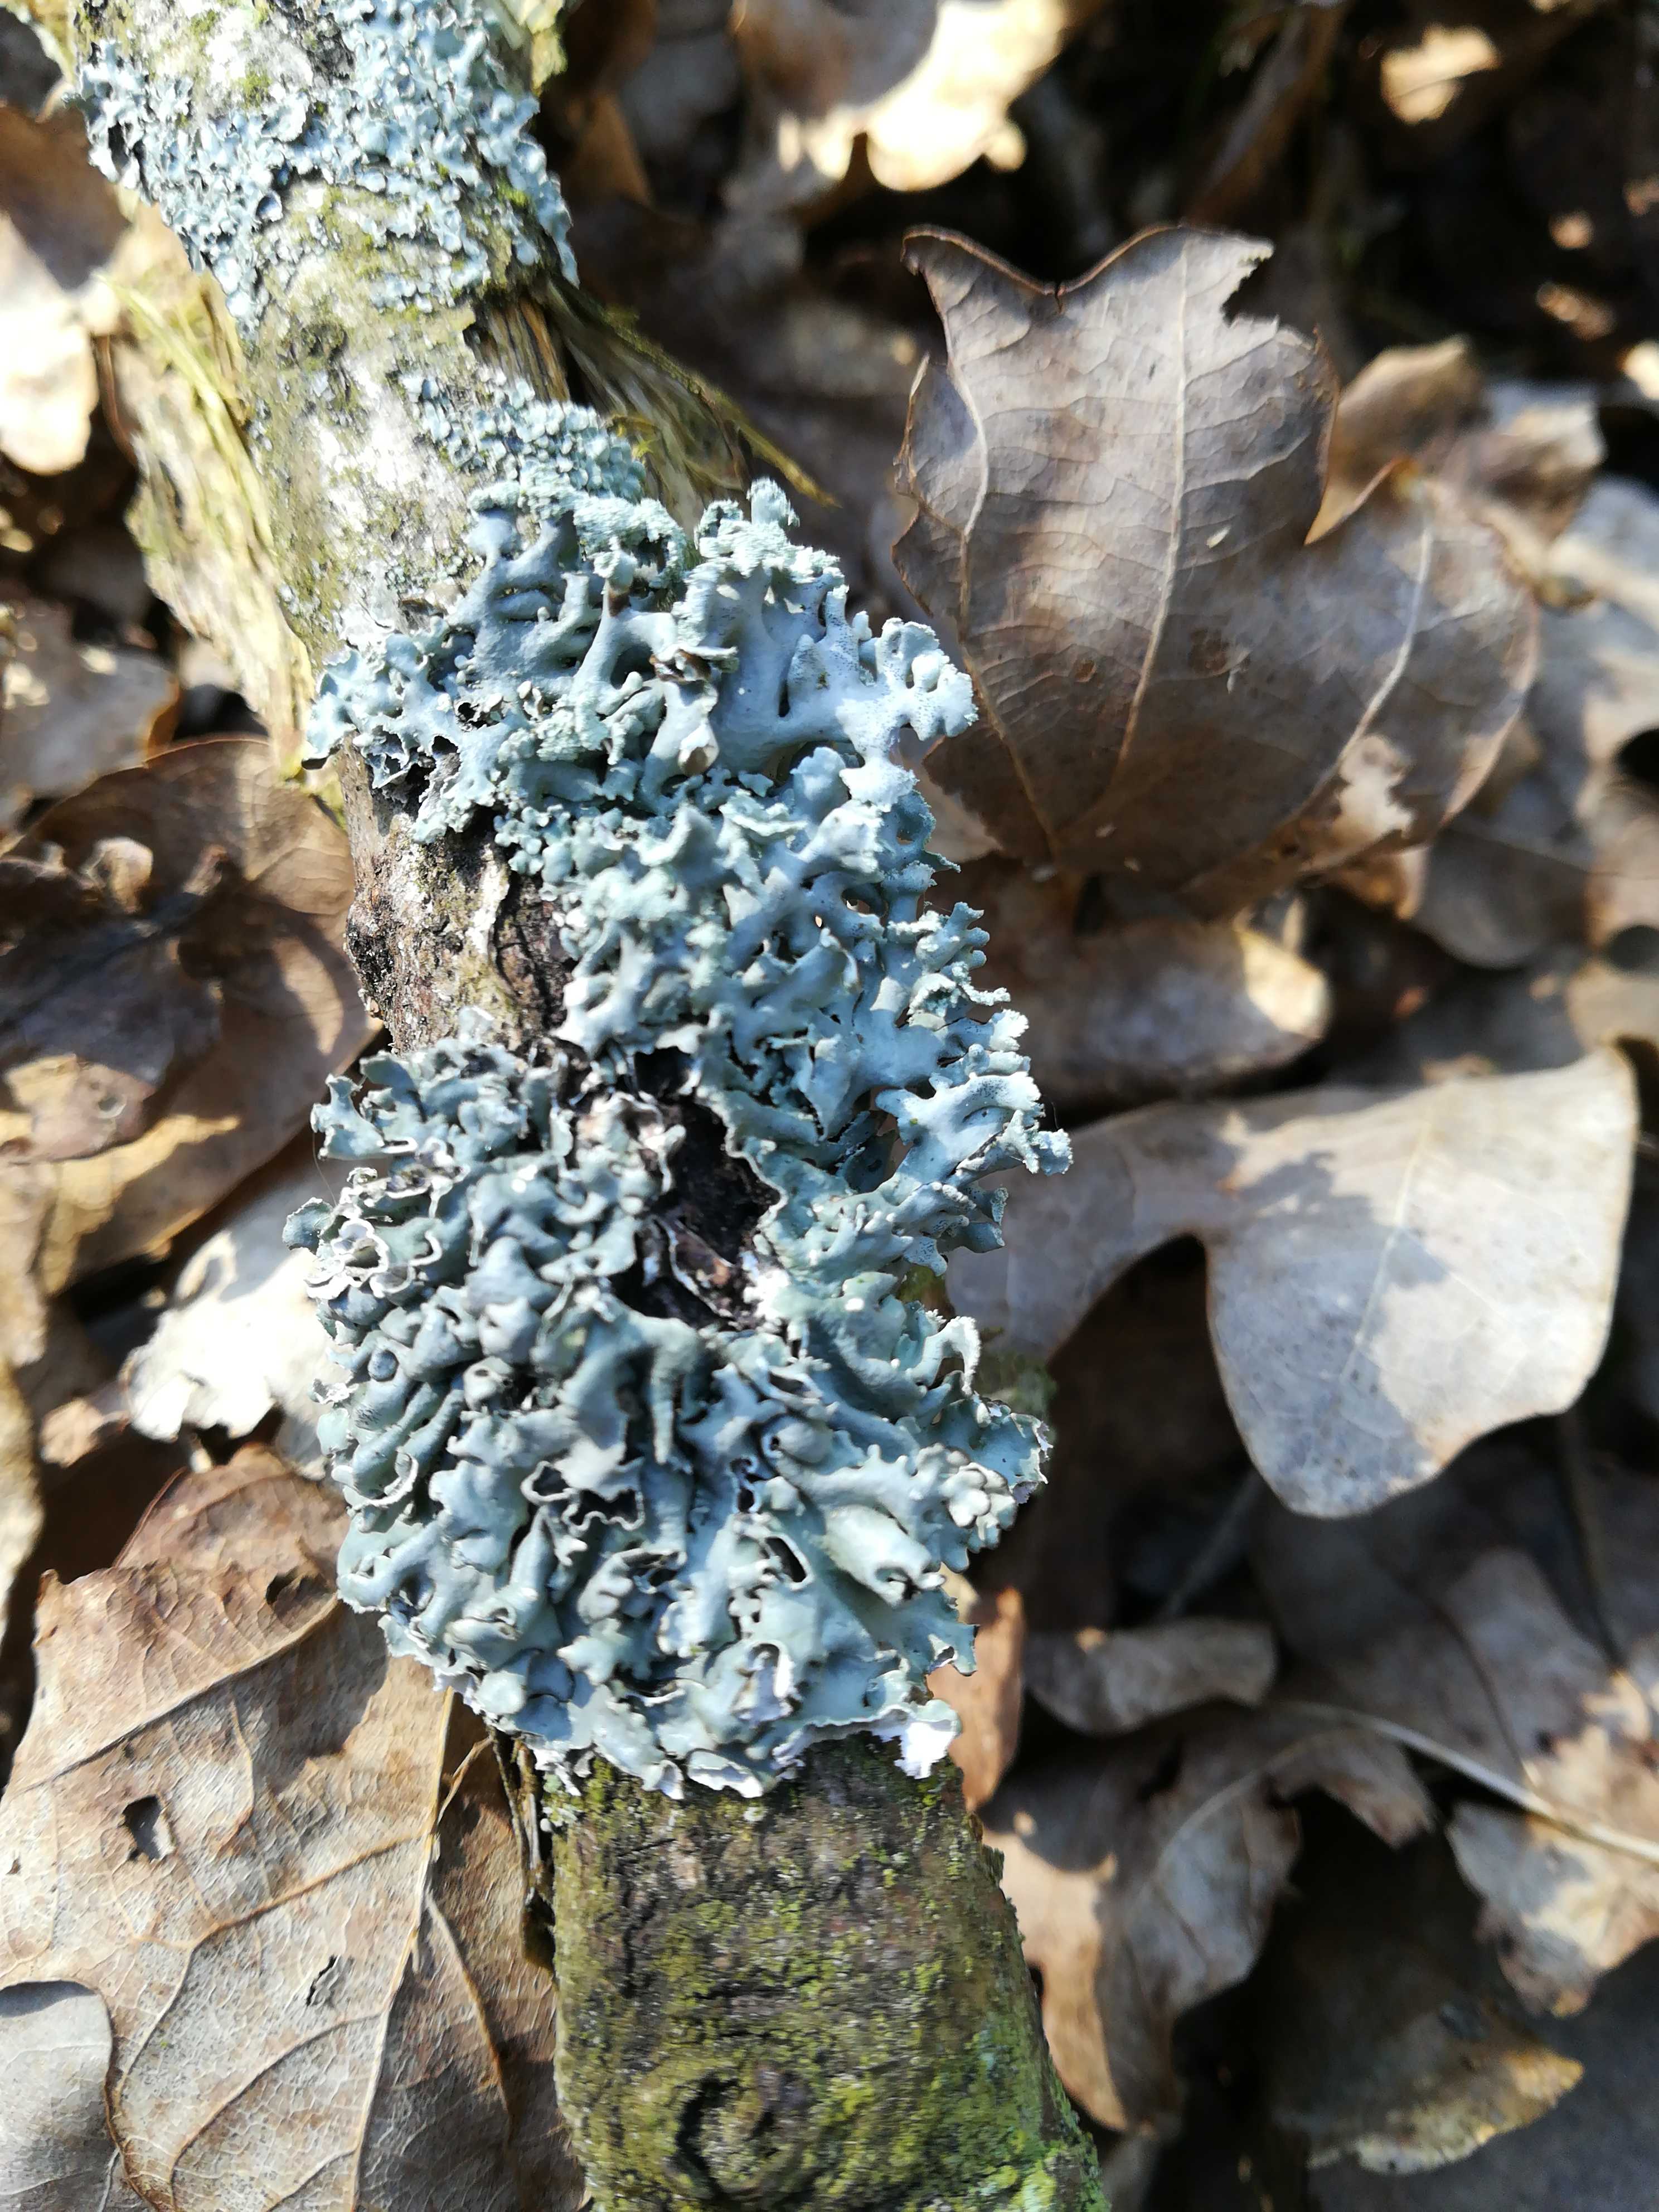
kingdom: Fungi
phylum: Ascomycota
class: Lecanoromycetes
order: Lecanorales
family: Parmeliaceae
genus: Hypogymnia
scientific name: Hypogymnia physodes
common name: almindelig kvistlav
